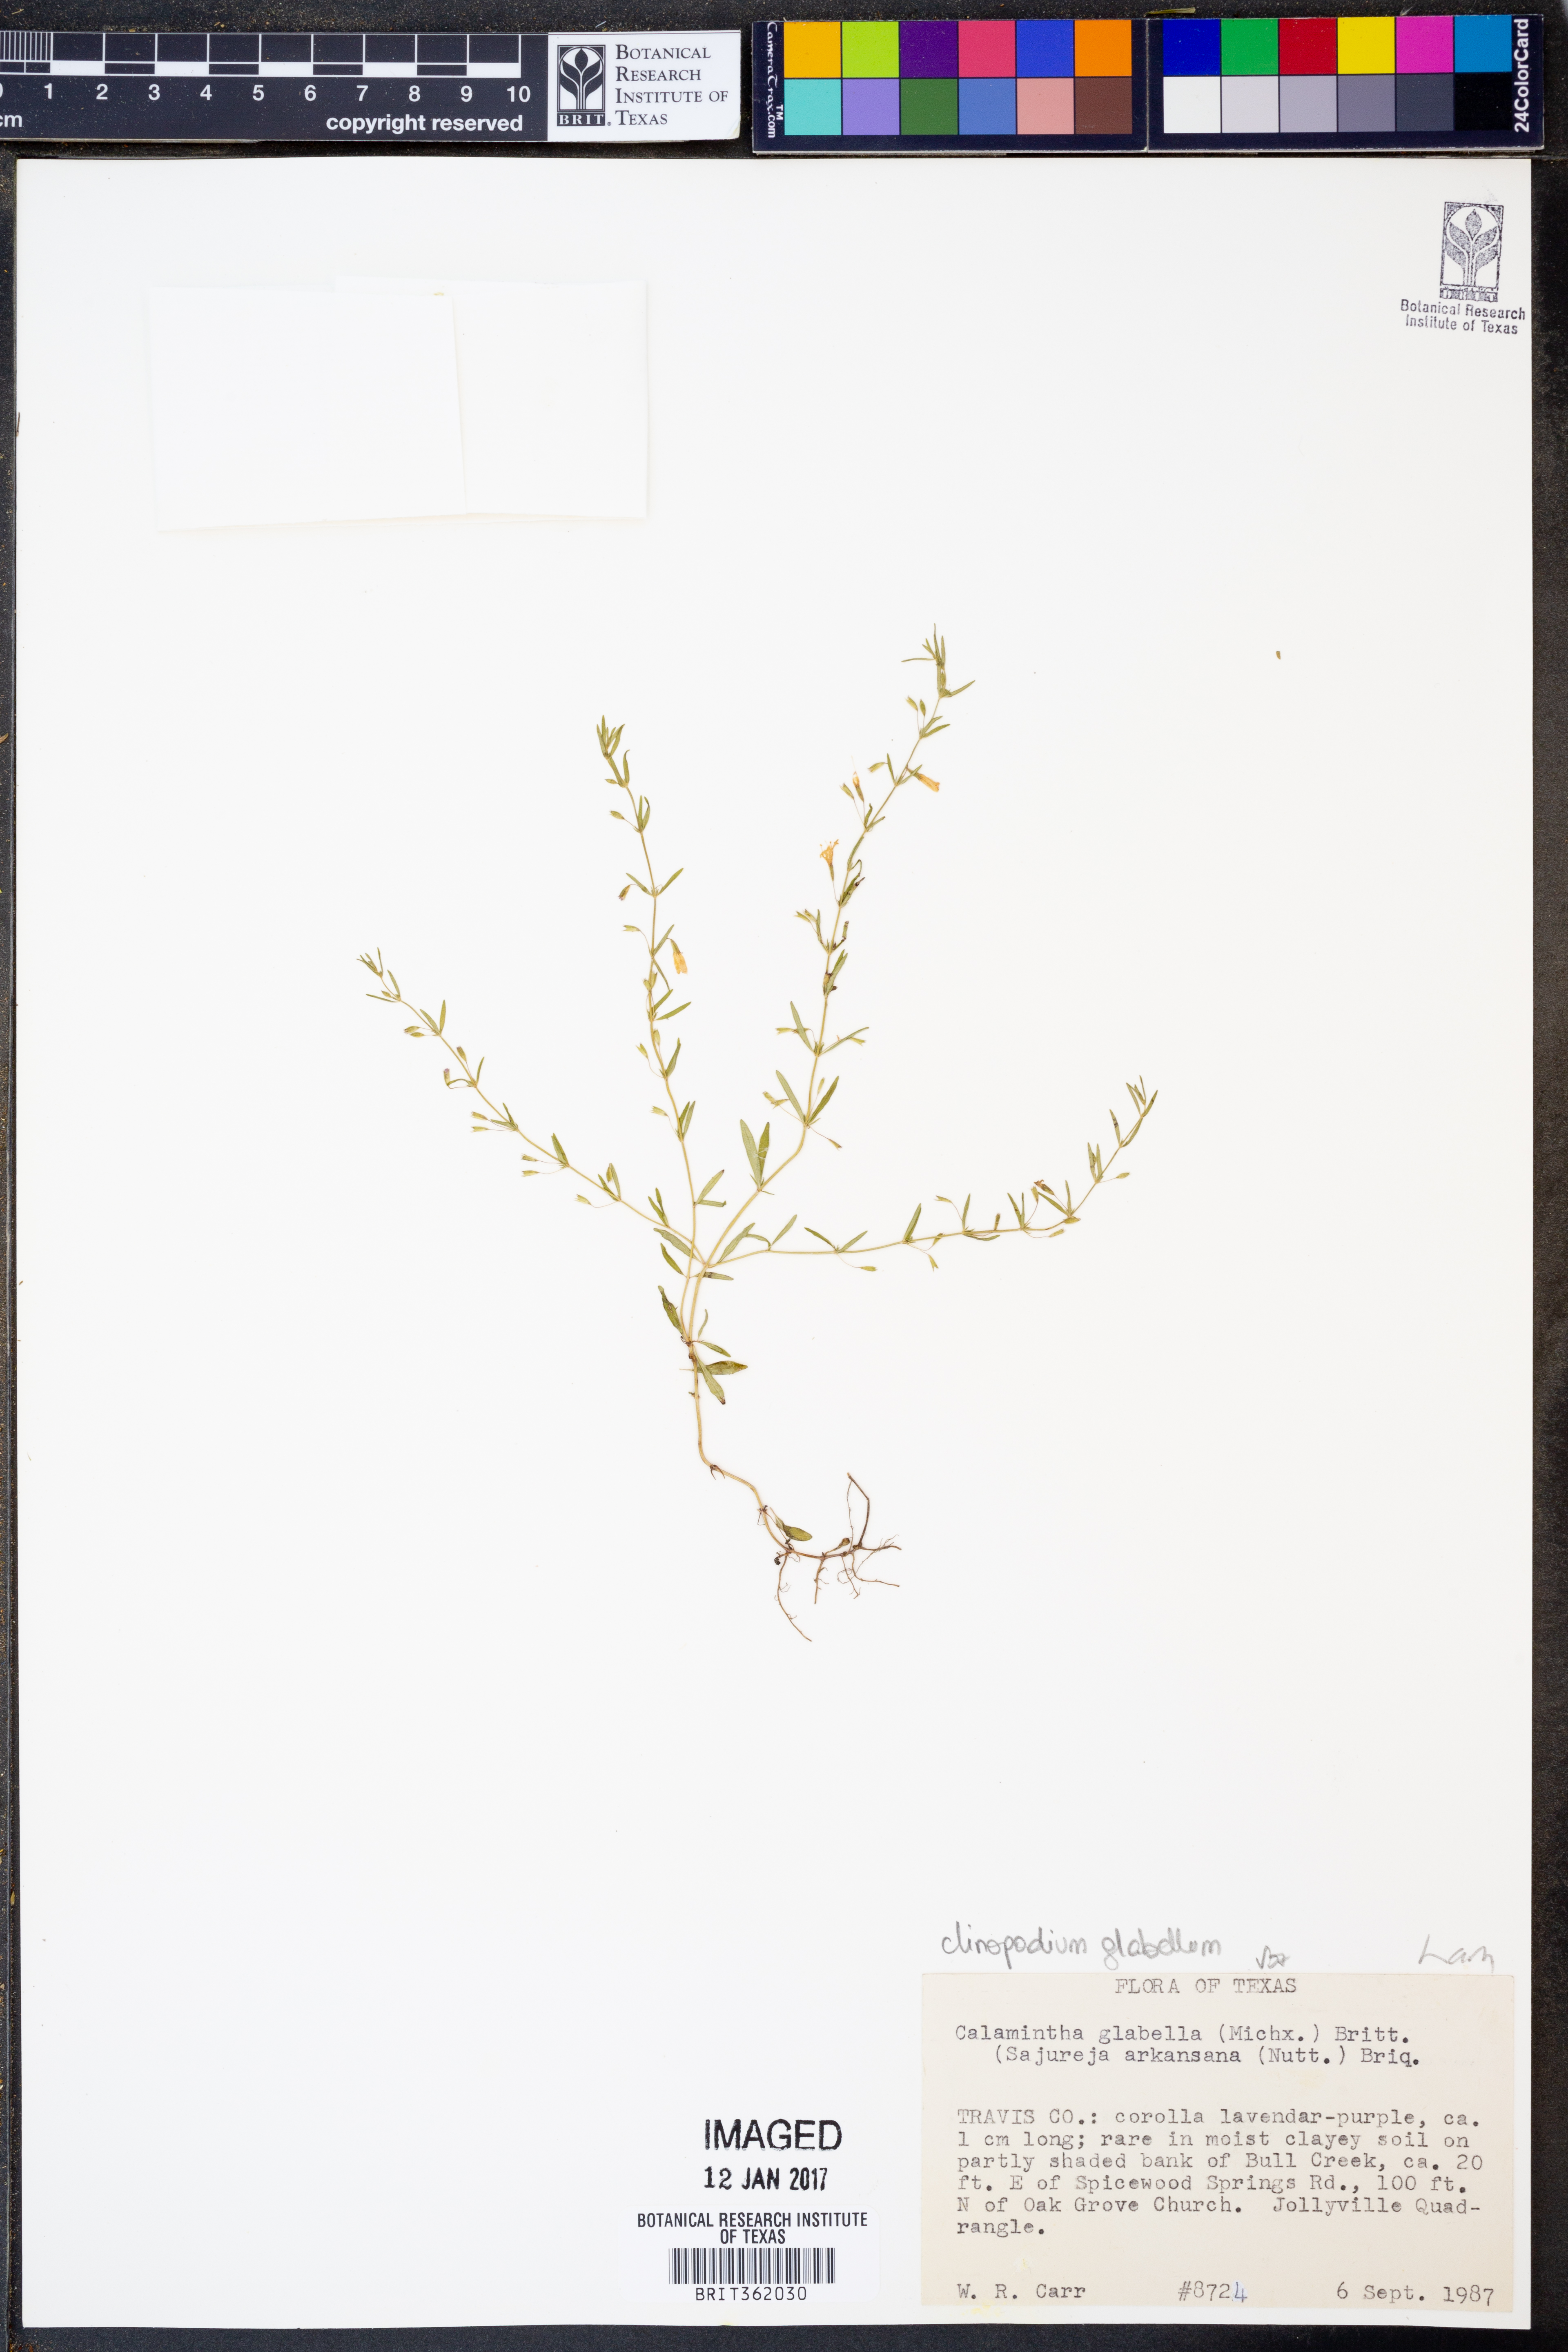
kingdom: Plantae
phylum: Tracheophyta
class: Magnoliopsida
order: Lamiales
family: Lamiaceae
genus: Clinopodium
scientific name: Clinopodium glabellum
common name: Ozark calamint
